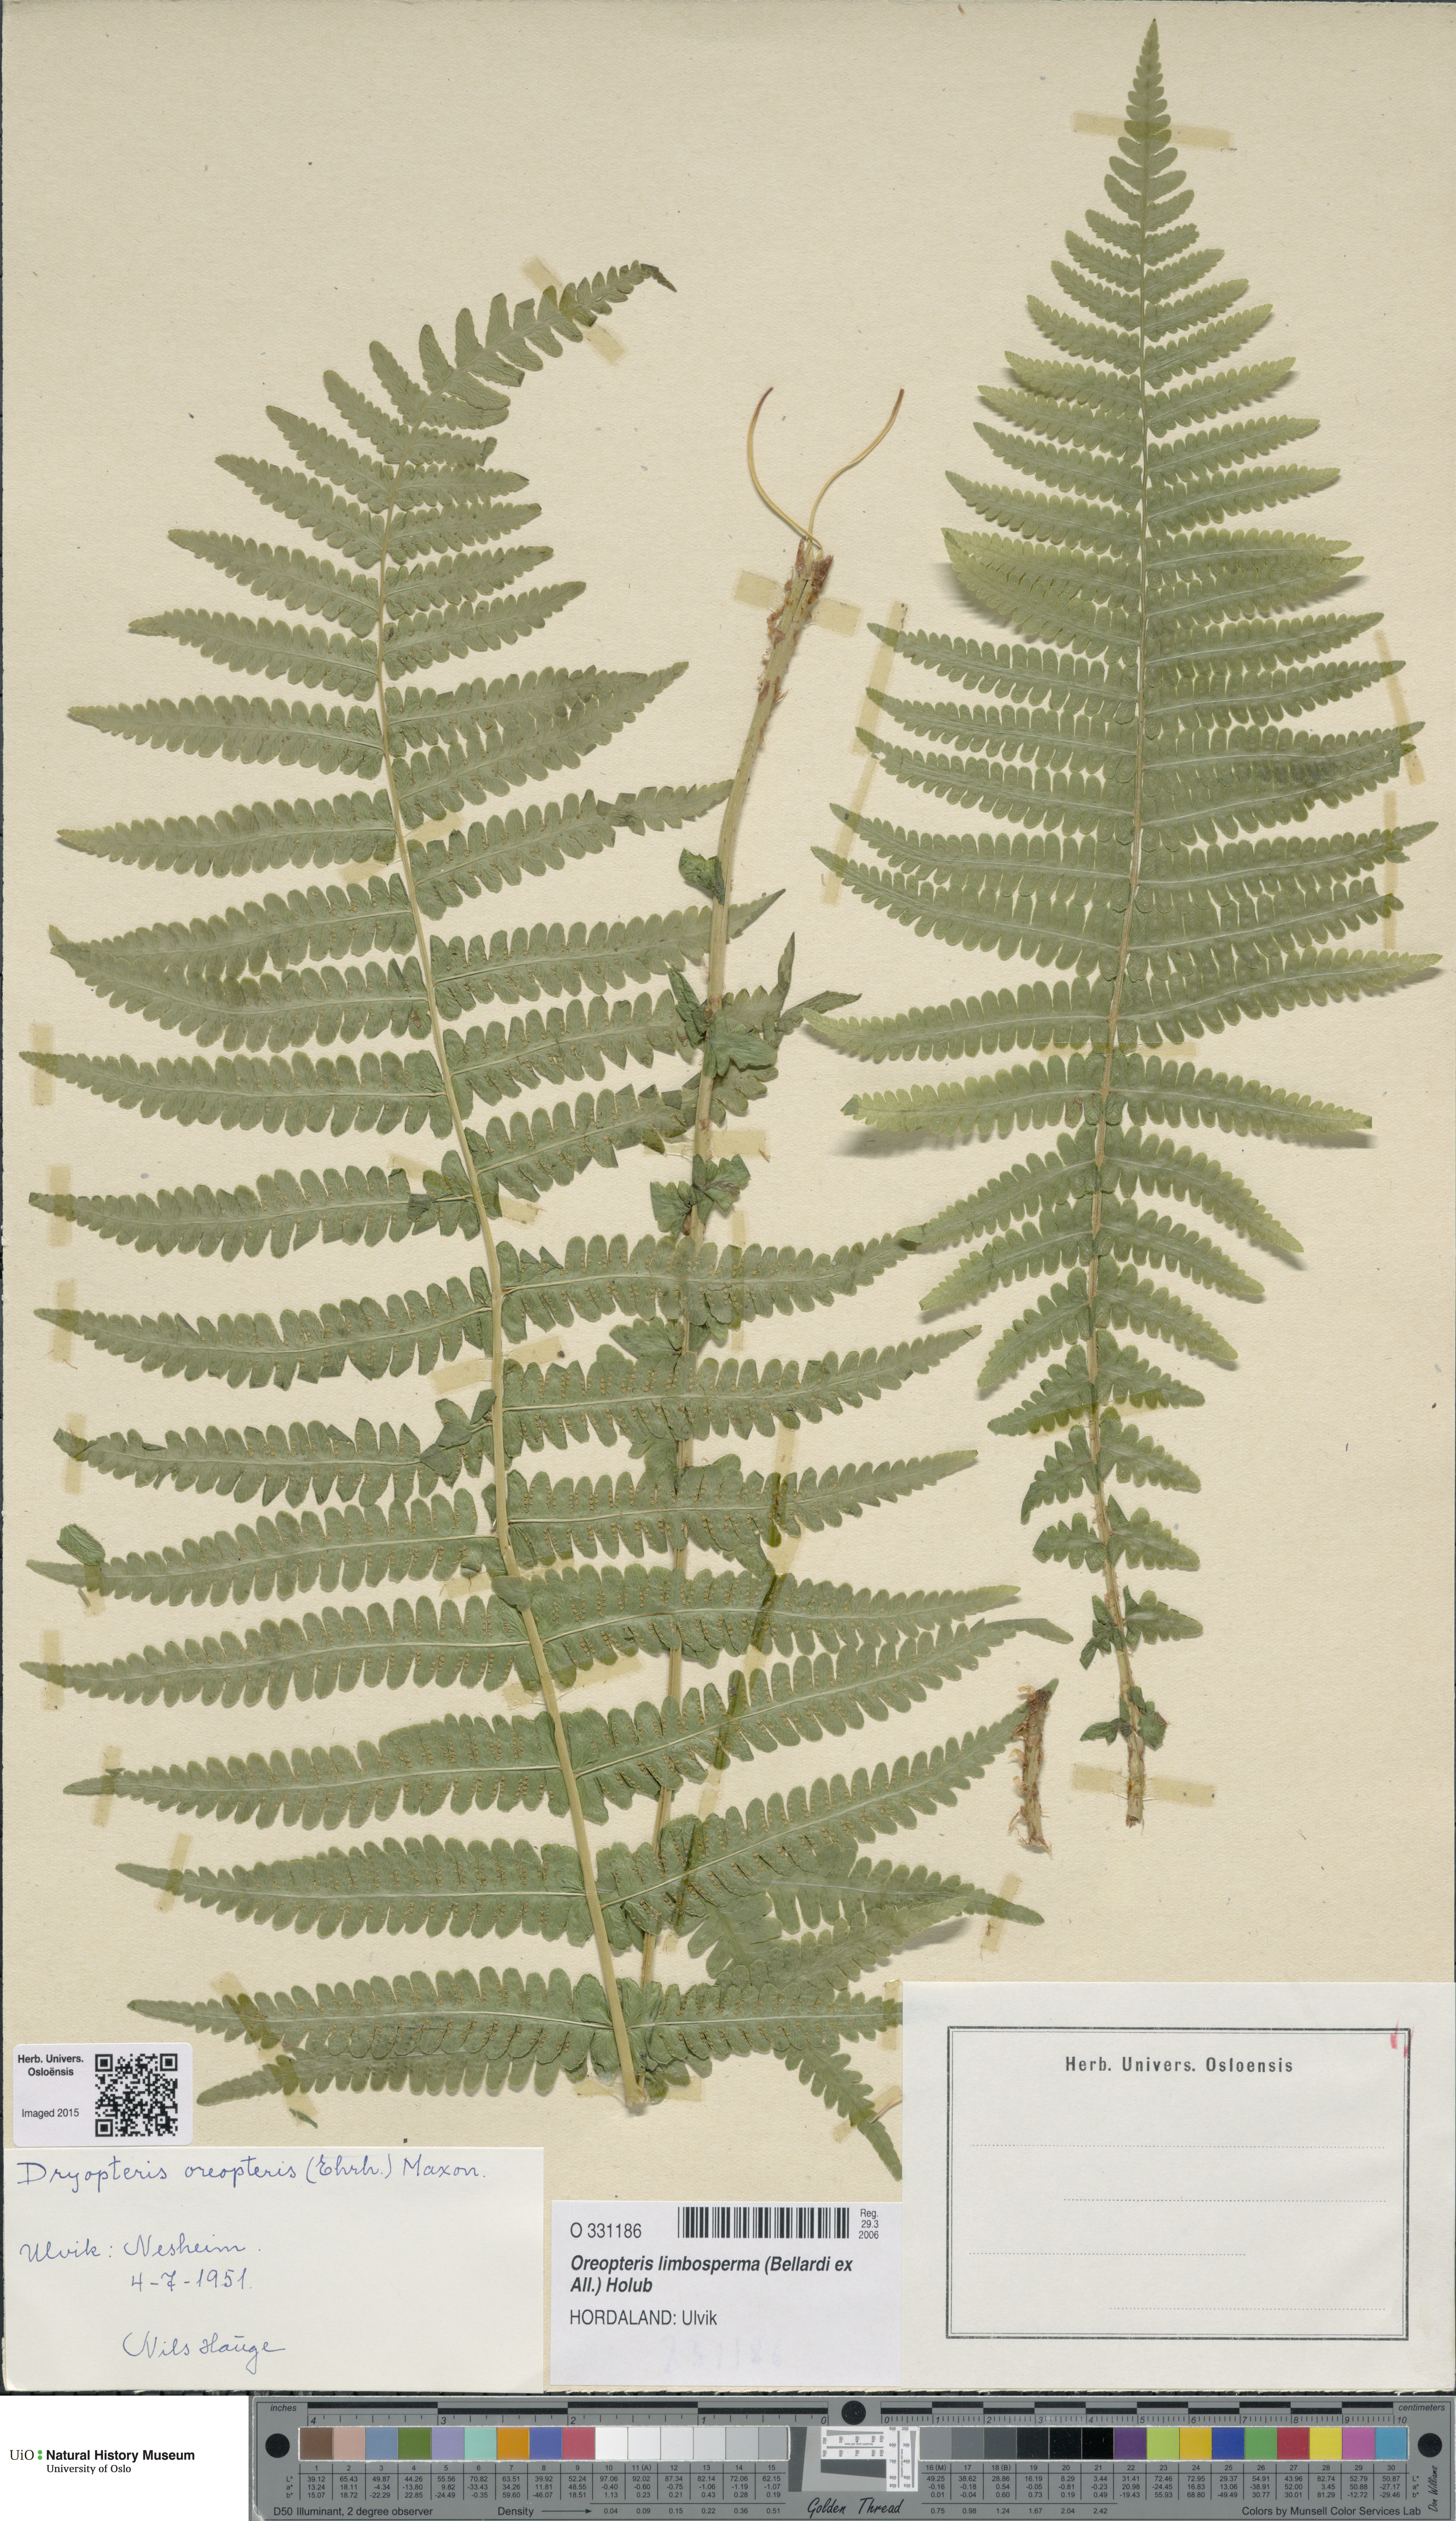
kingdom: Plantae
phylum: Tracheophyta
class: Polypodiopsida
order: Polypodiales
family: Thelypteridaceae
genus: Oreopteris
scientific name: Oreopteris limbosperma
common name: Lemon-scented fern
